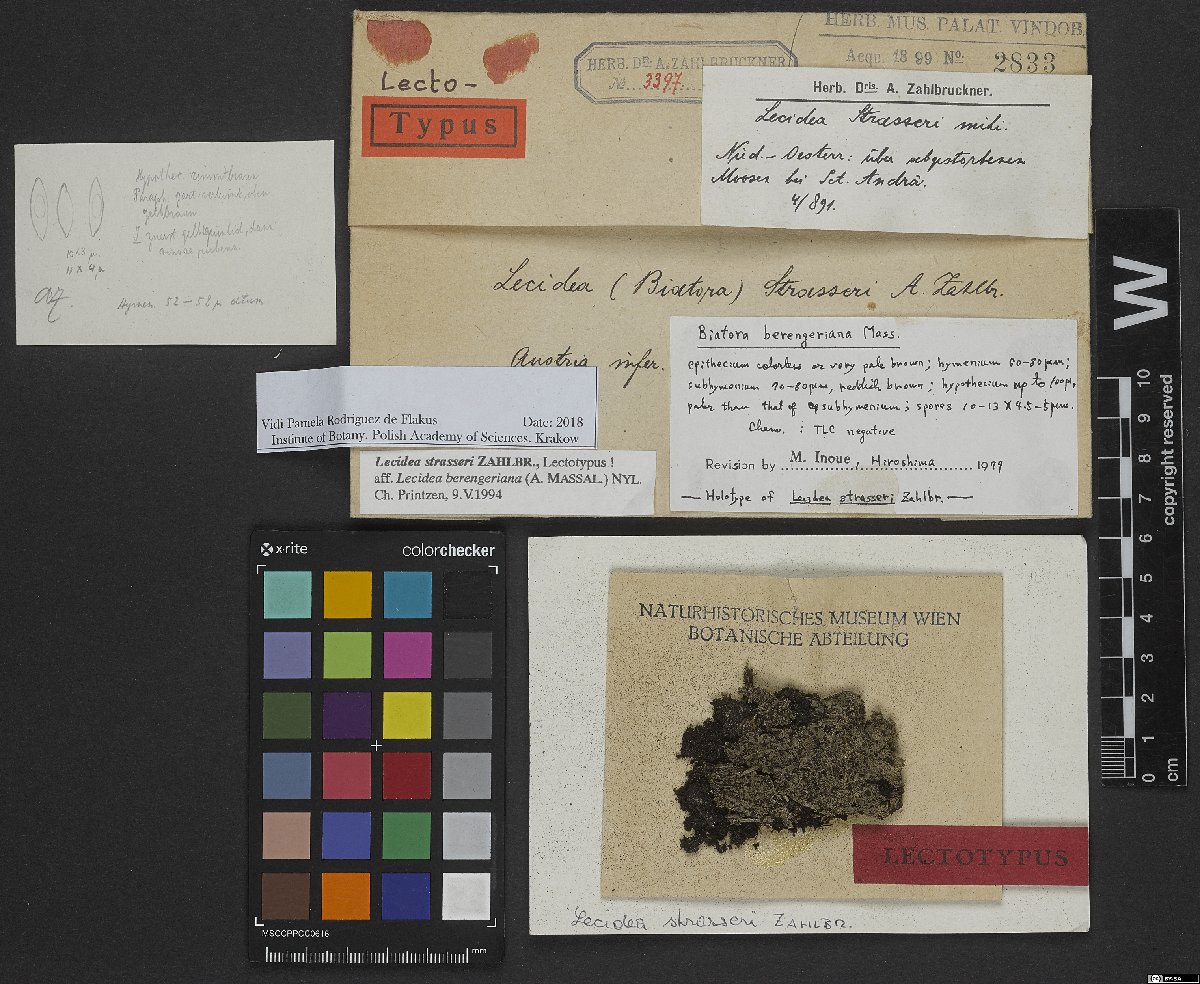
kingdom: Fungi
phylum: Ascomycota
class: Lecanoromycetes
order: Lecideales
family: Lecideaceae
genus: Lecidea
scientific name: Lecidea strasseri
